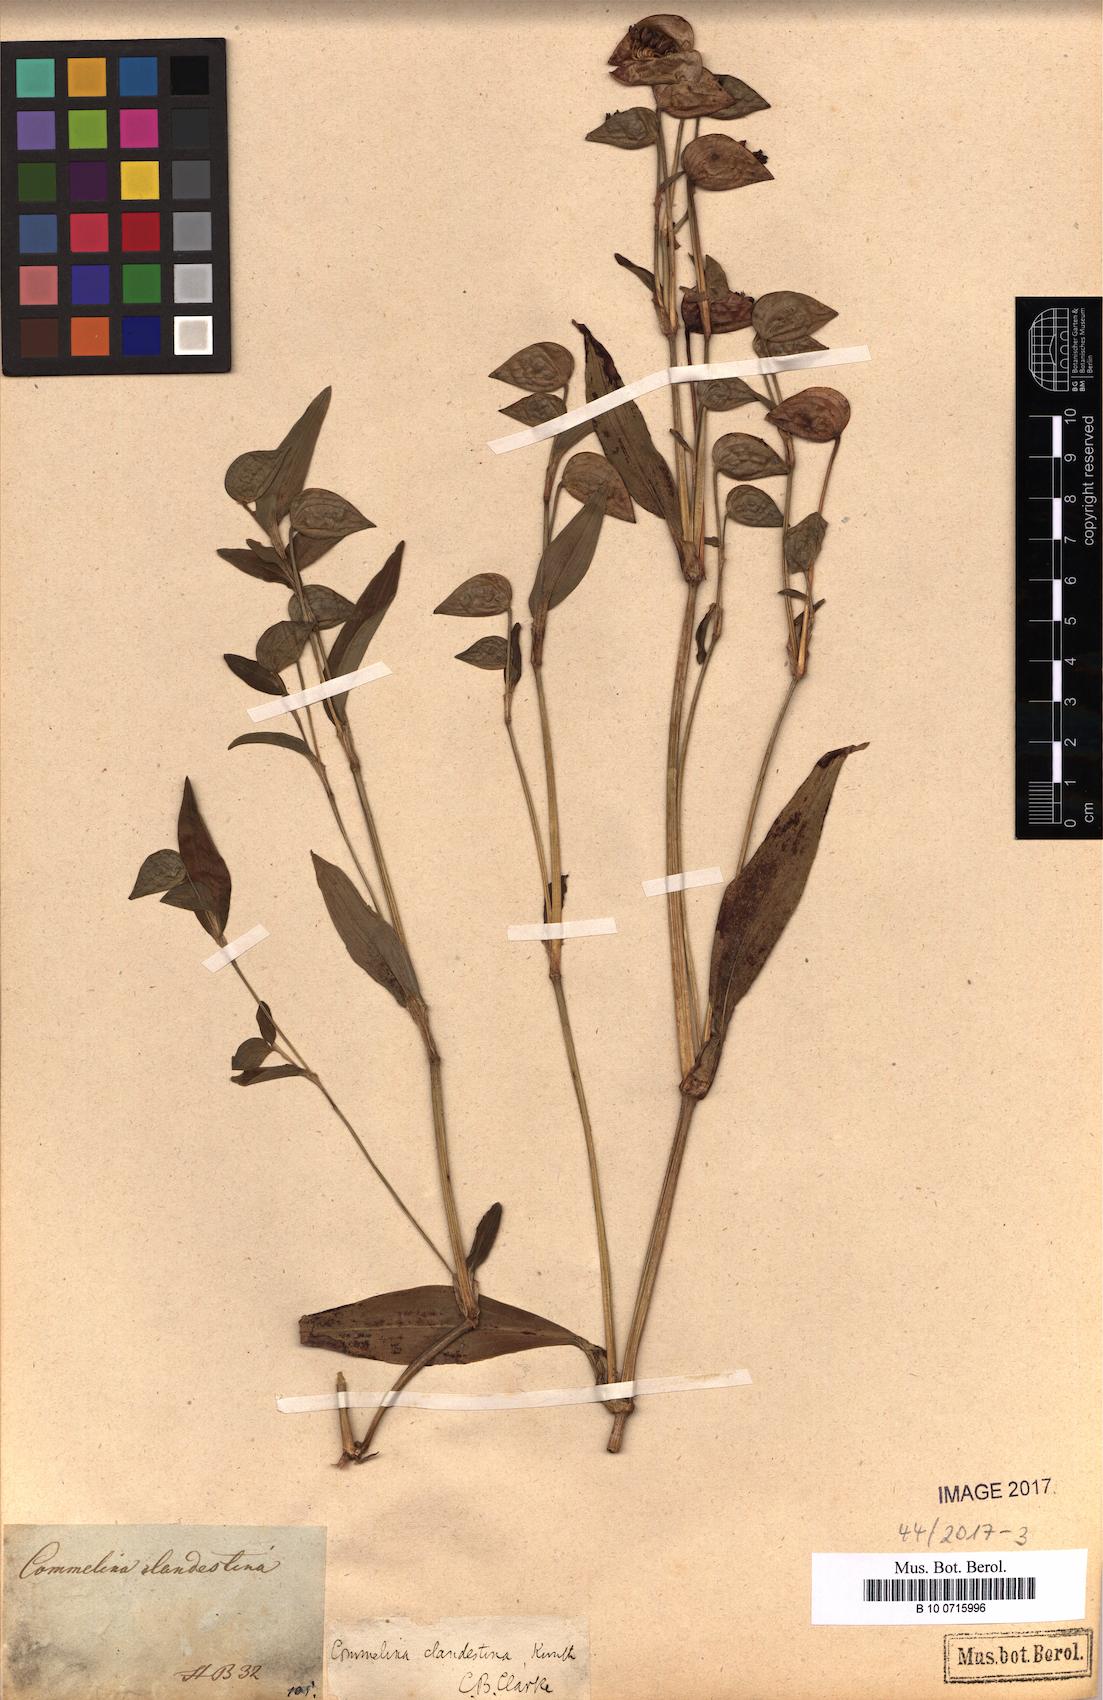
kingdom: Plantae
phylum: Tracheophyta
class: Liliopsida
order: Commelinales
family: Commelinaceae
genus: Commelina
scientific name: Commelina tuberosa
